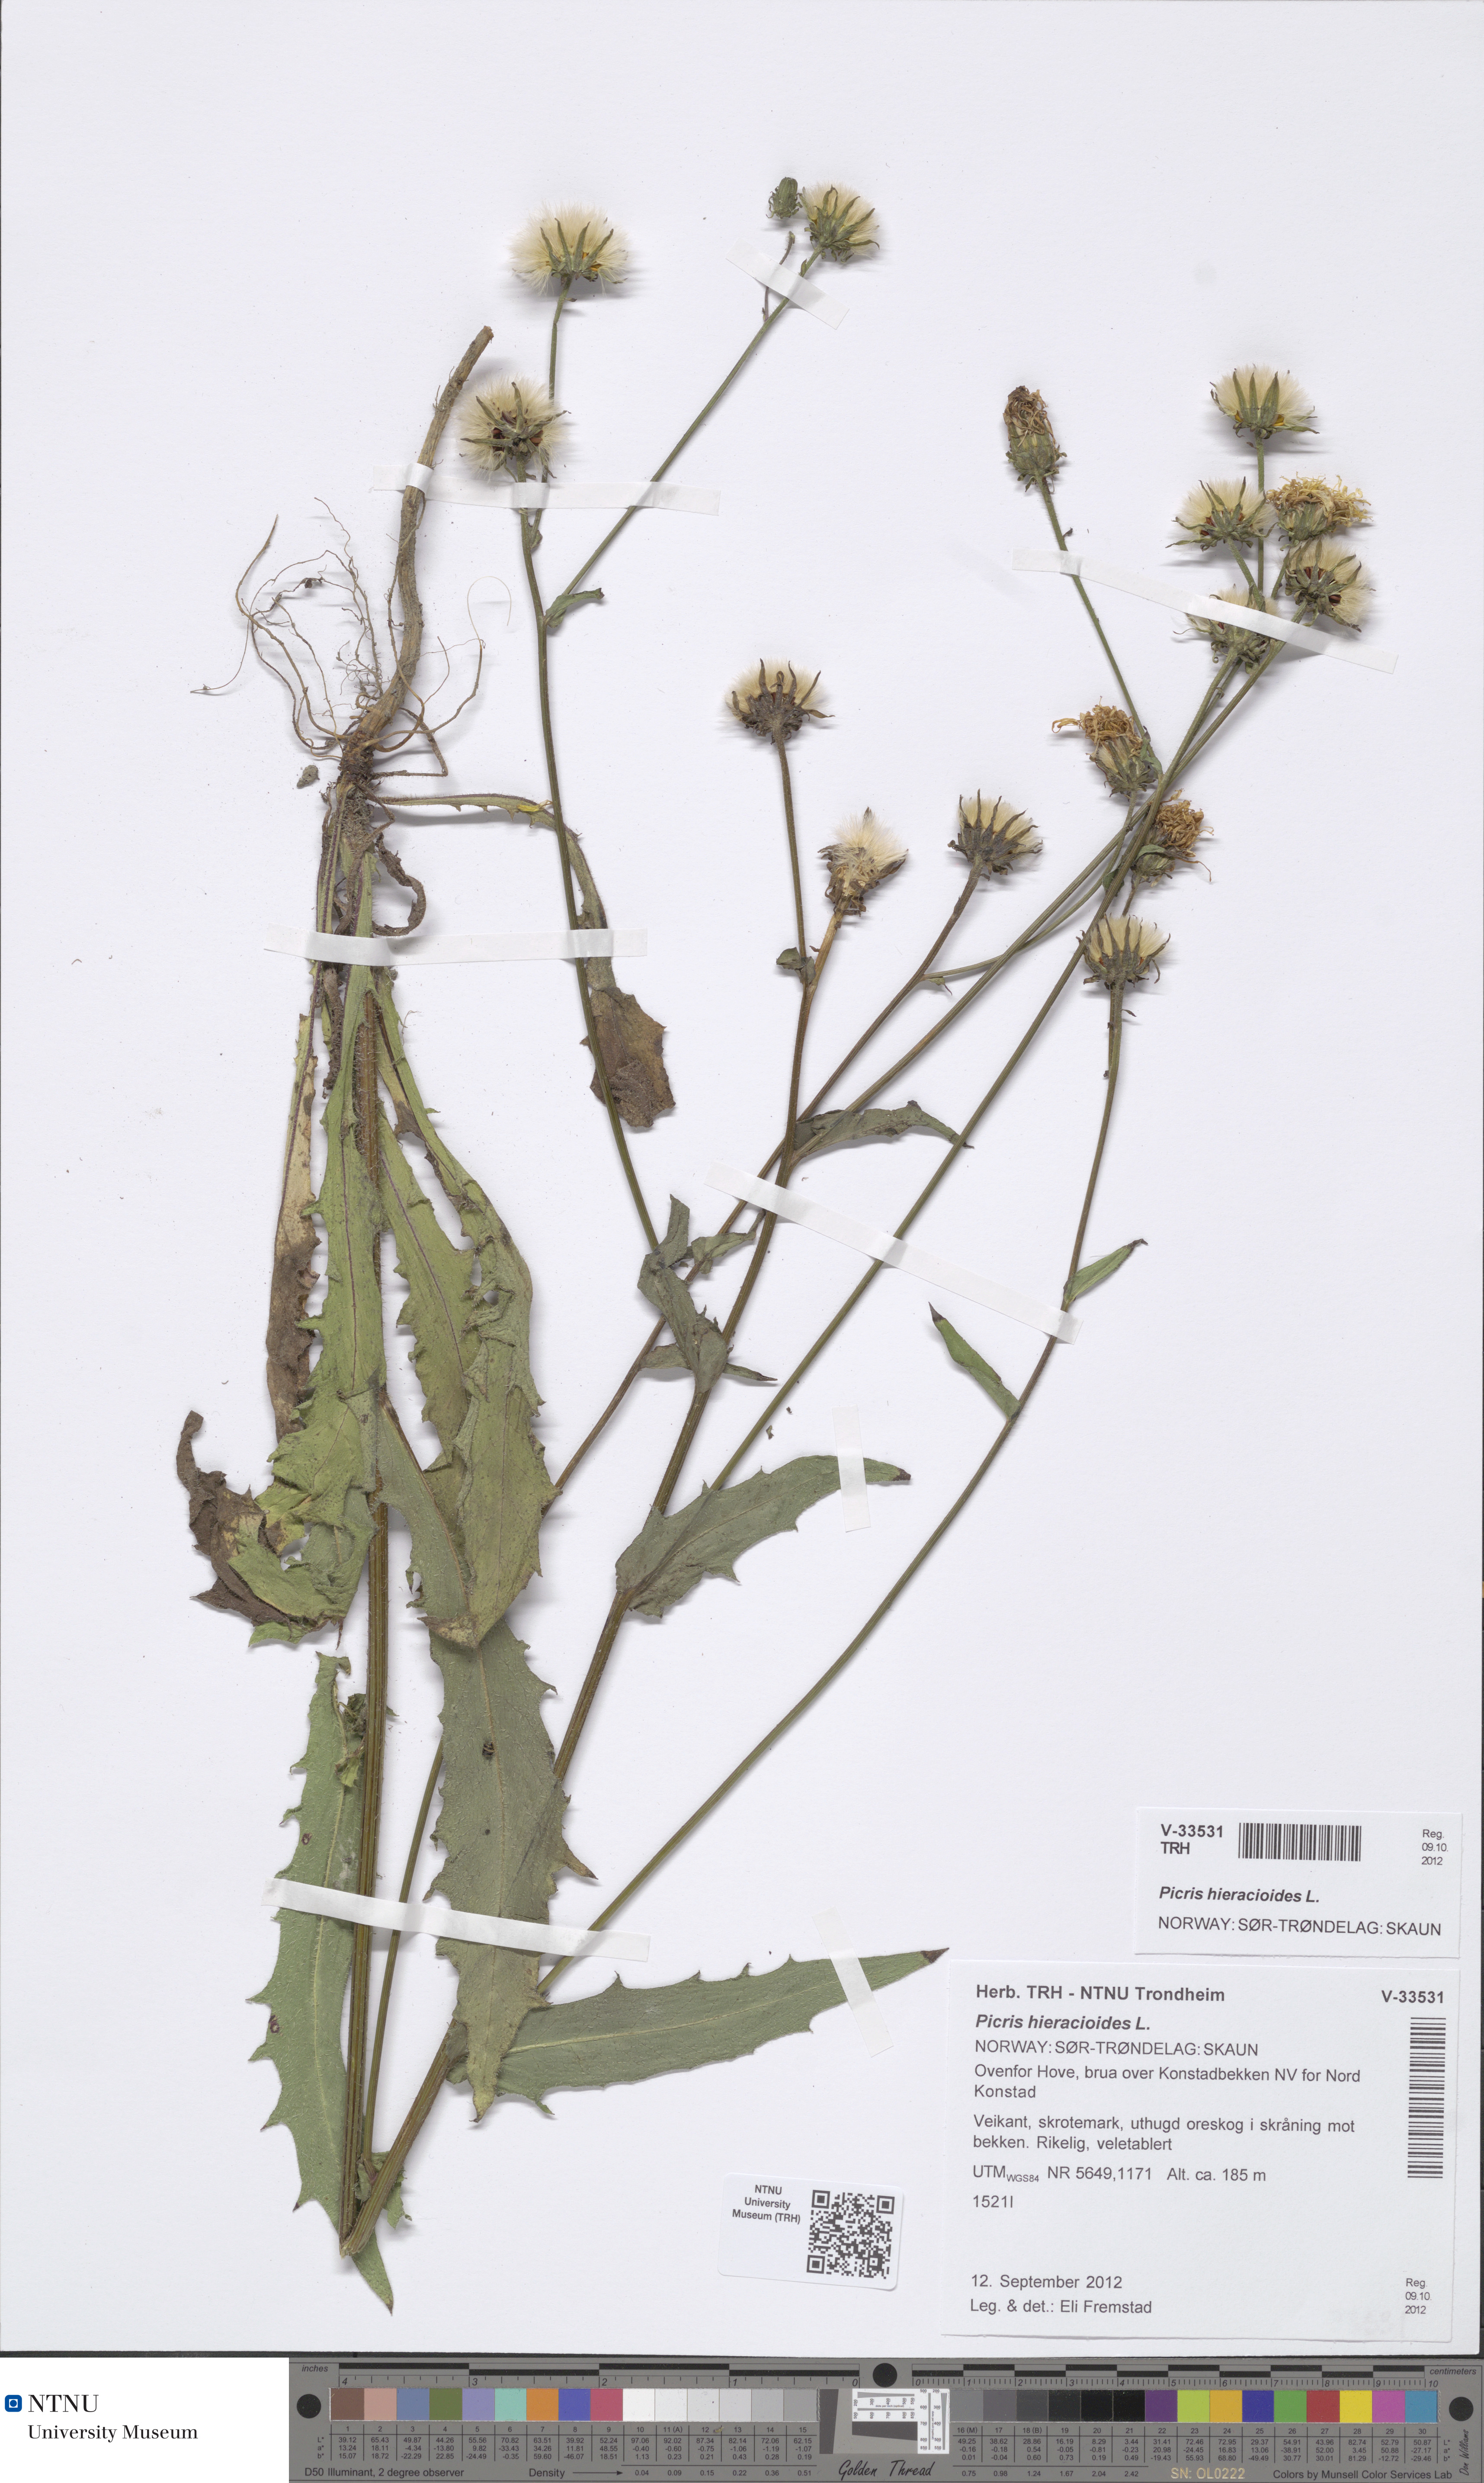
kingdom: Plantae
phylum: Tracheophyta
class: Magnoliopsida
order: Asterales
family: Asteraceae
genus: Picris
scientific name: Picris hieracioides
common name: Hawkweed oxtongue
